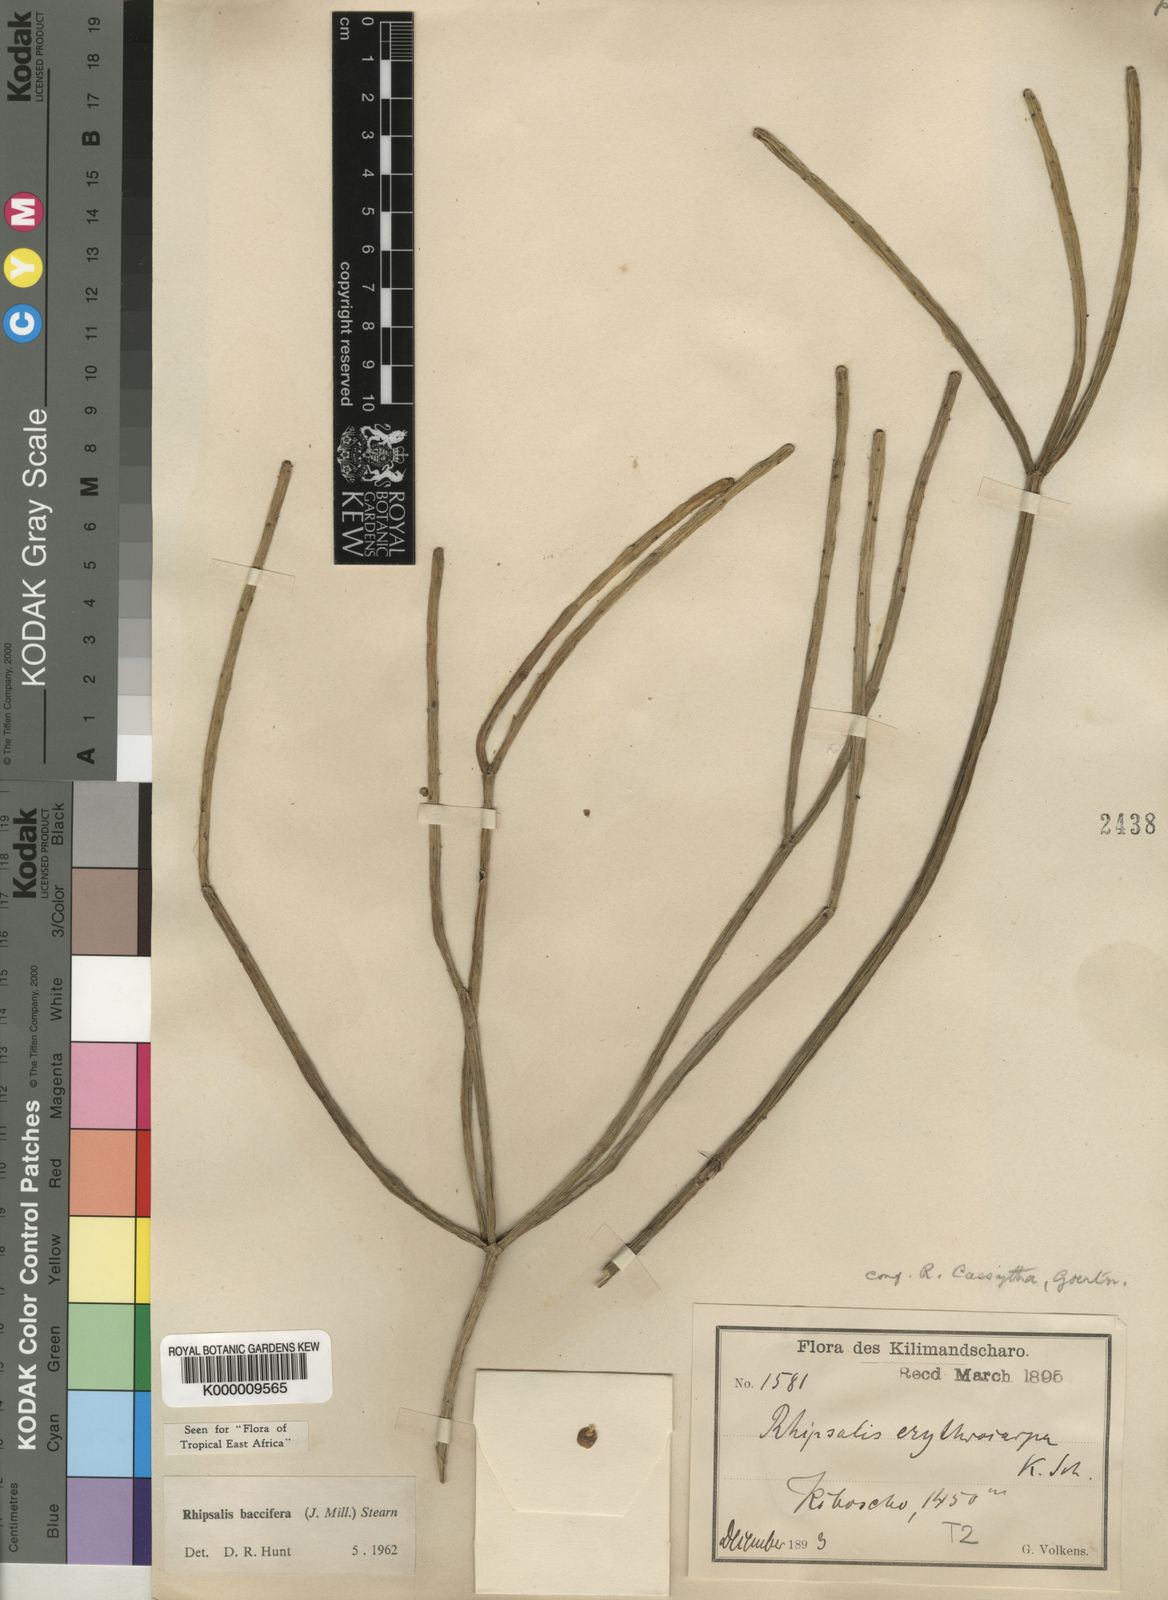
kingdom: Plantae
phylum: Tracheophyta
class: Magnoliopsida
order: Caryophyllales
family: Cactaceae
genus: Rhipsalis
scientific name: Rhipsalis baccifera
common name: Mistletoe cactus
